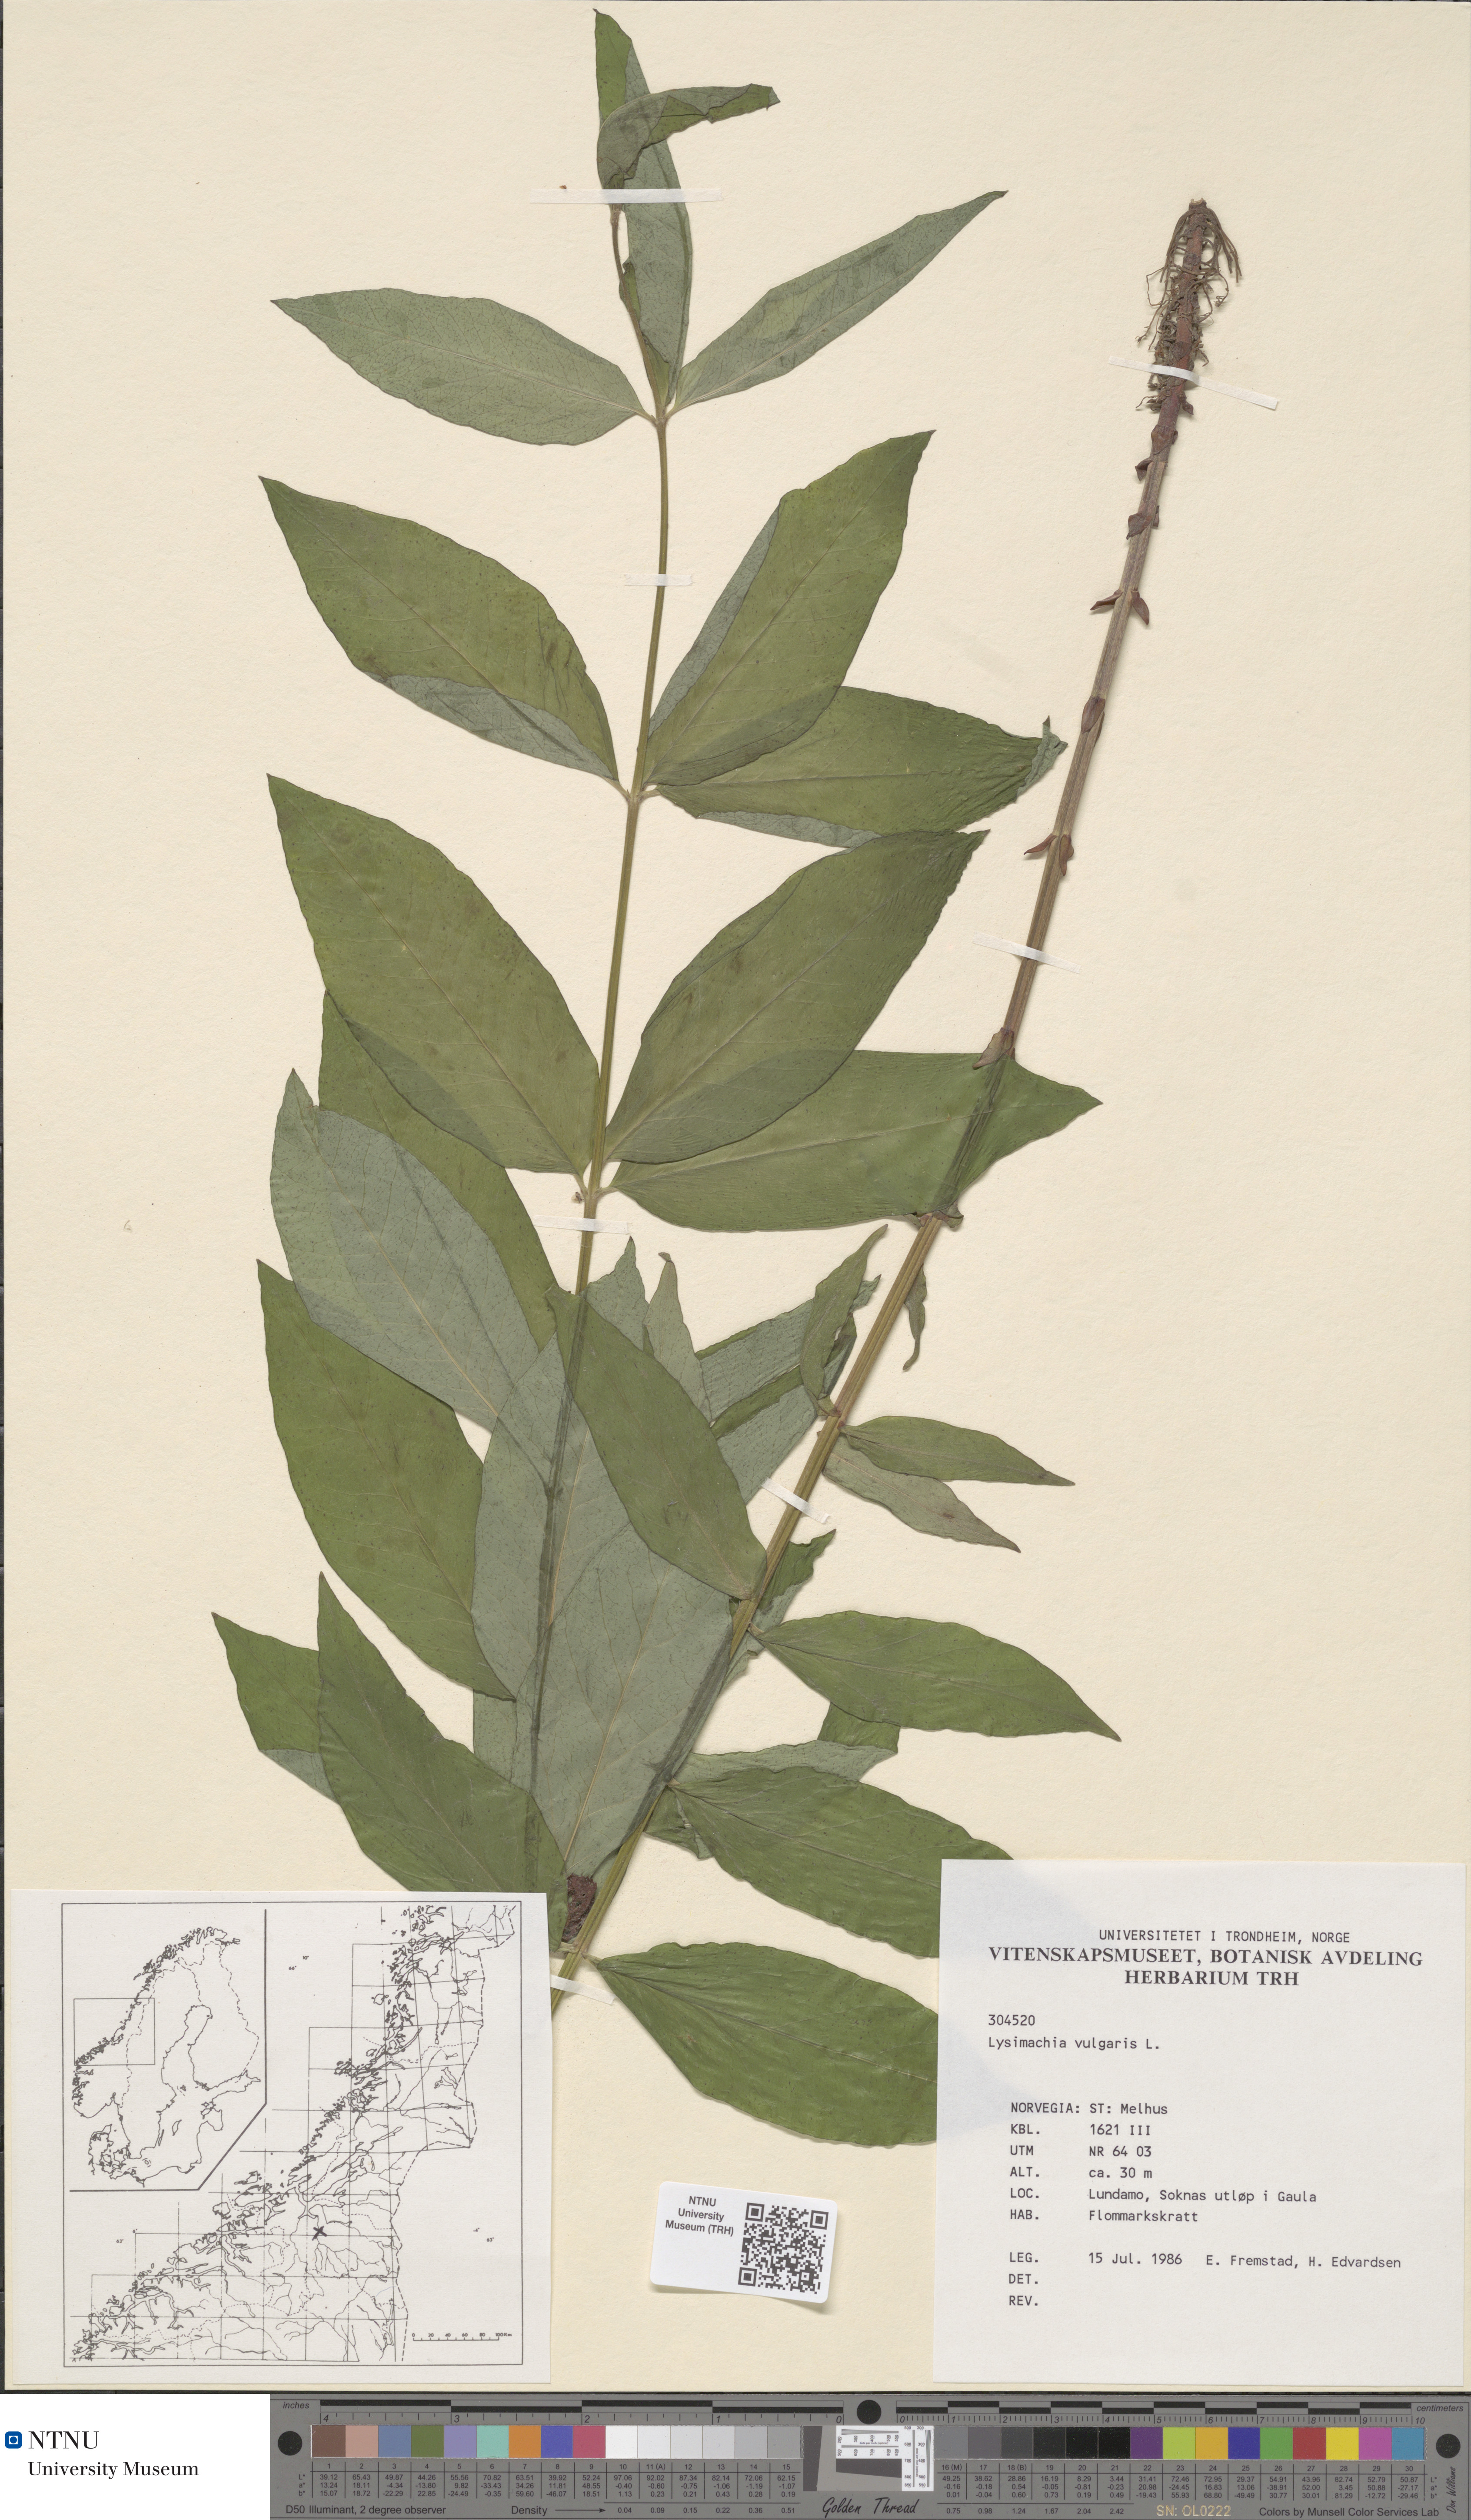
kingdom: Plantae
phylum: Tracheophyta
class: Magnoliopsida
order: Ericales
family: Primulaceae
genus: Lysimachia
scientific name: Lysimachia vulgaris
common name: Yellow loosestrife
